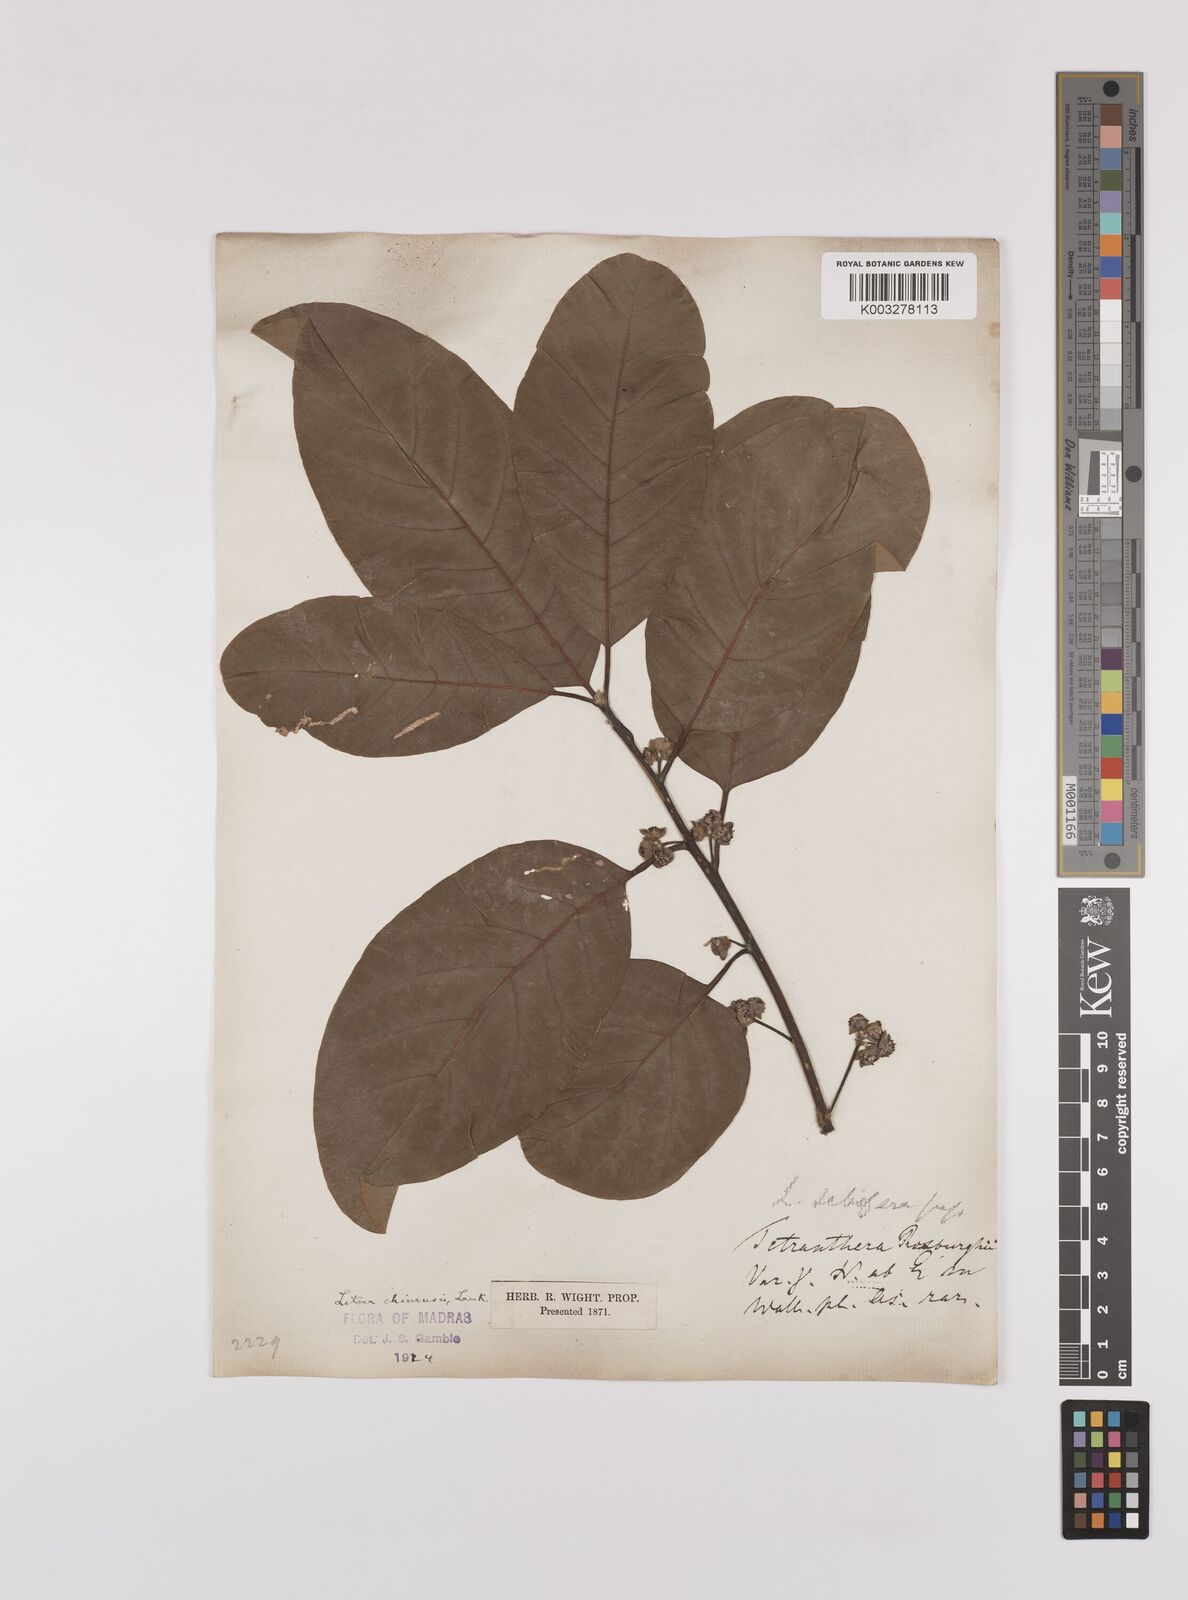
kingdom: Plantae
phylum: Tracheophyta
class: Magnoliopsida
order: Laurales
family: Lauraceae
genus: Litsea
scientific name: Litsea
